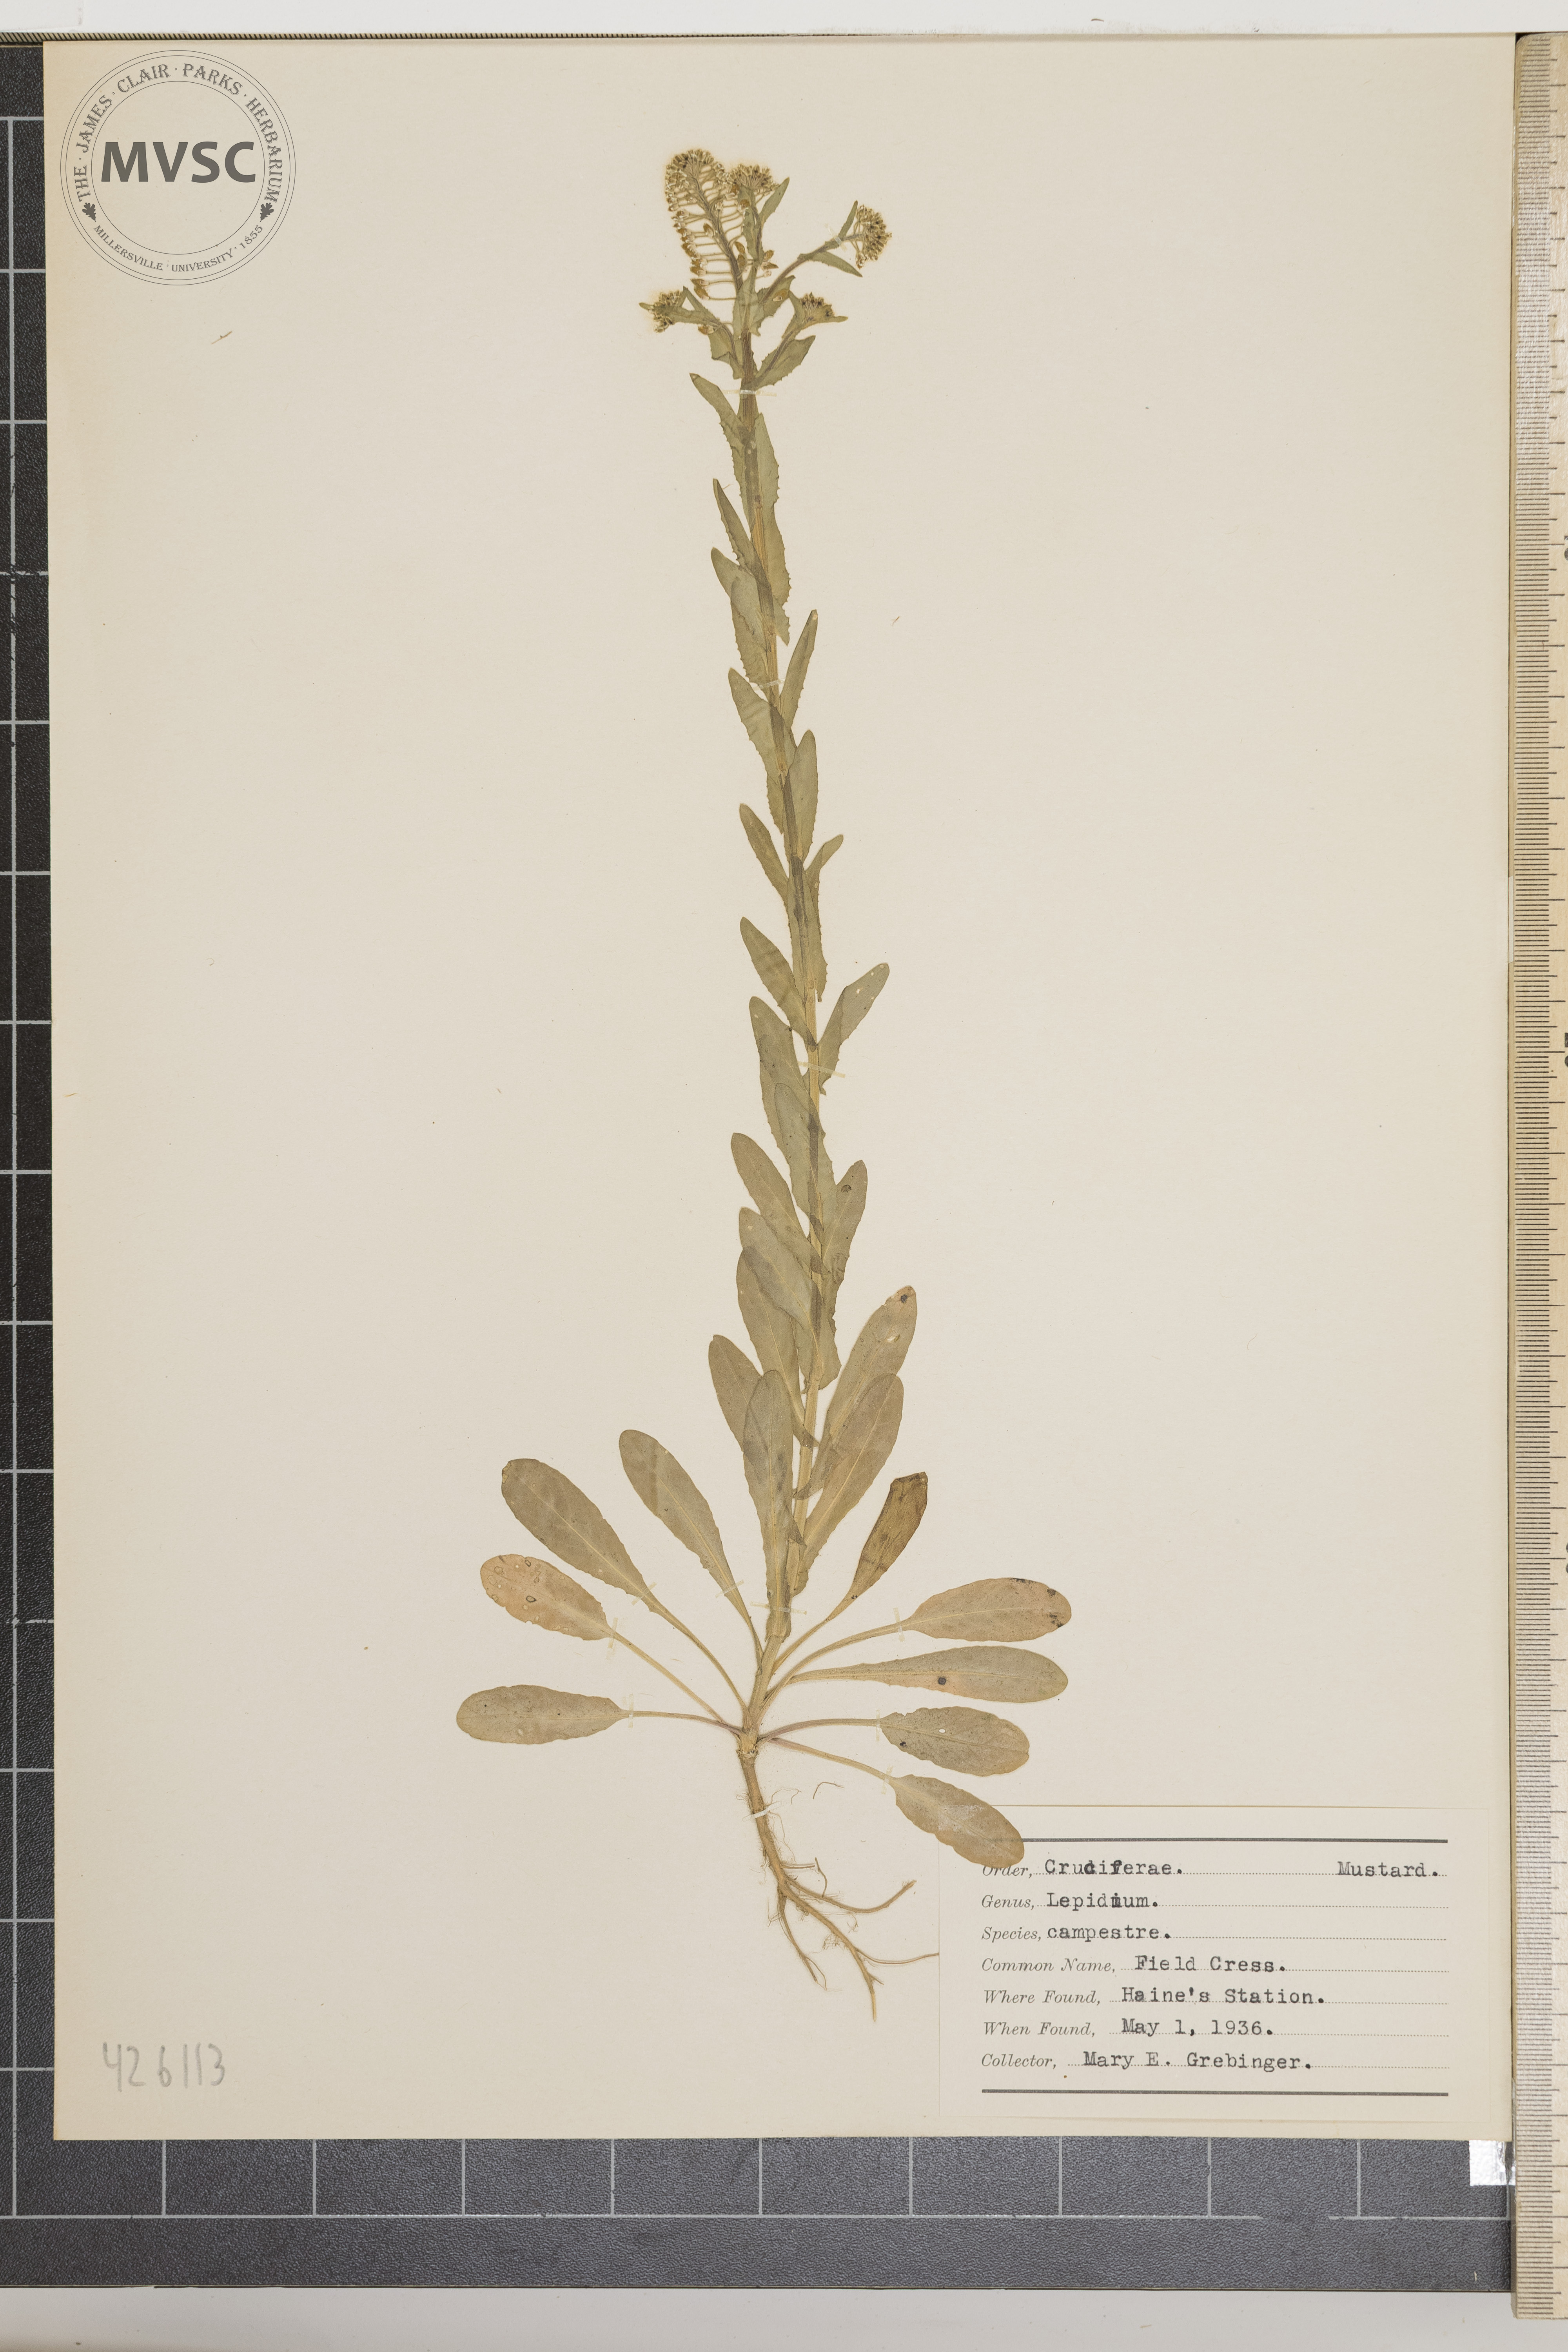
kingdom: Plantae
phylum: Tracheophyta
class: Magnoliopsida
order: Brassicales
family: Brassicaceae
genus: Lepidium
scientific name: Lepidium campestre
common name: Field Cress
